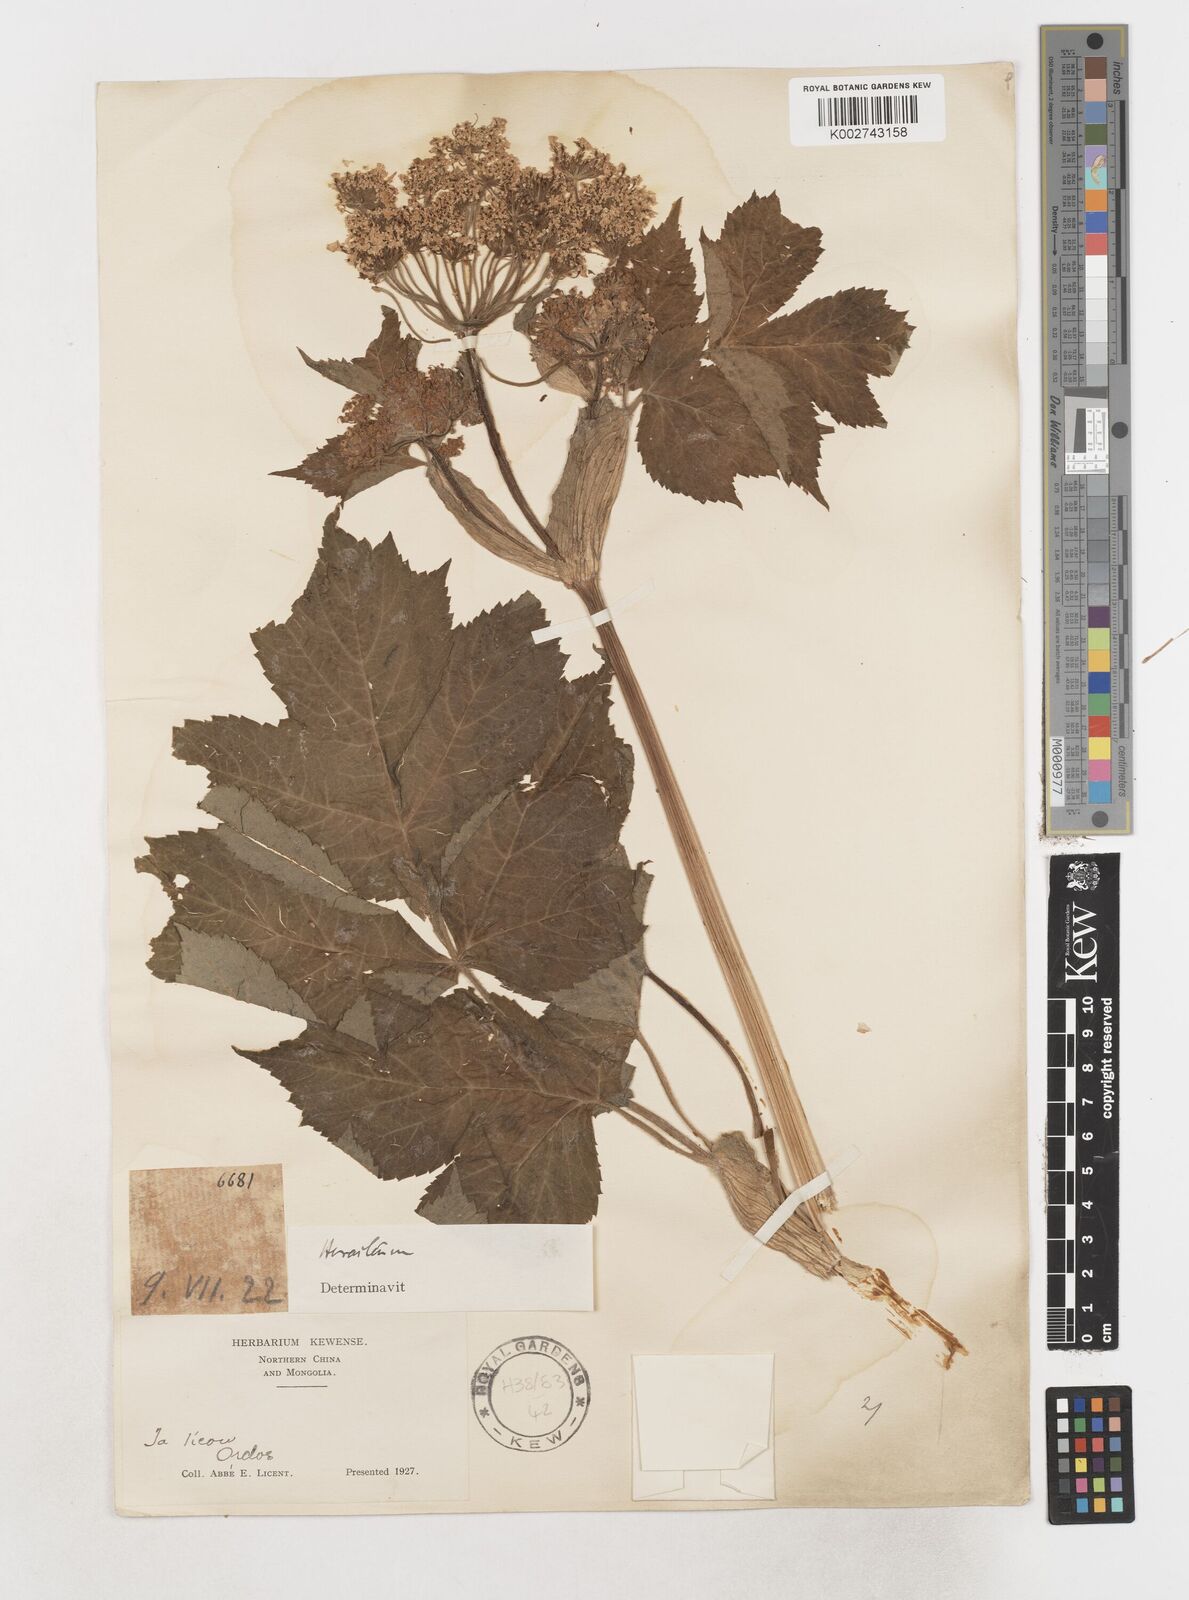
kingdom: Plantae
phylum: Tracheophyta
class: Magnoliopsida
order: Apiales
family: Apiaceae
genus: Tetrataenium
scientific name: Tetrataenium birmanicum
